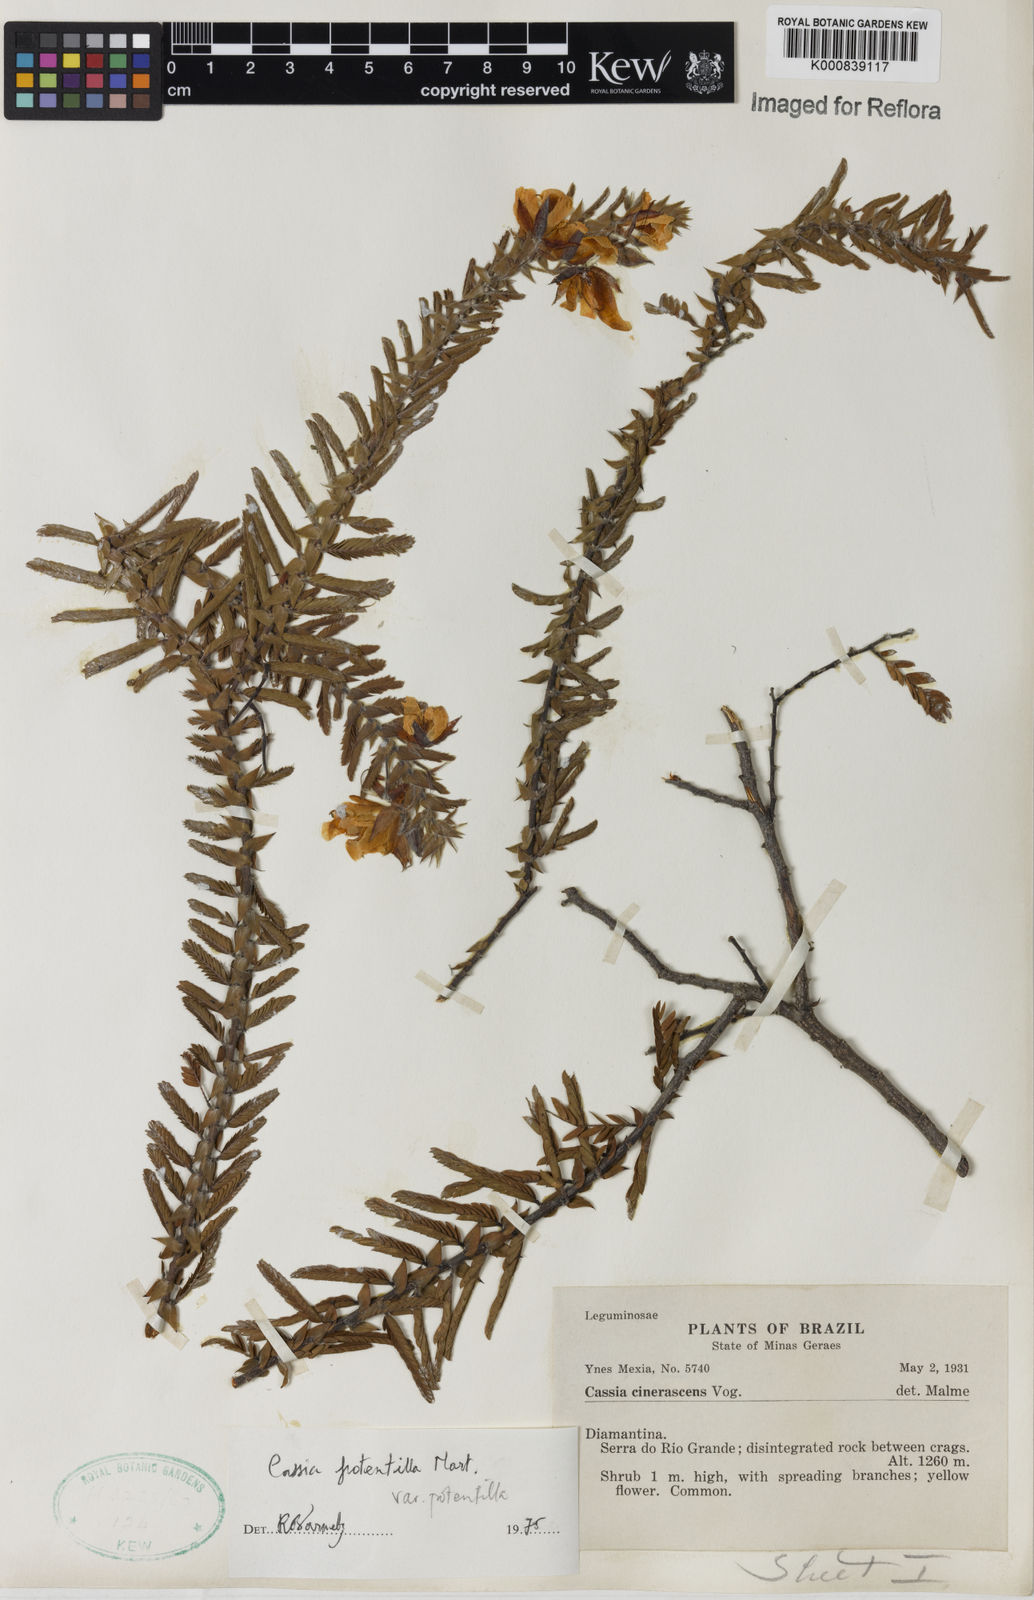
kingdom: Plantae
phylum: Tracheophyta
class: Magnoliopsida
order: Fabales
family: Fabaceae
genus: Chamaecrista
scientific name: Chamaecrista potentilla
